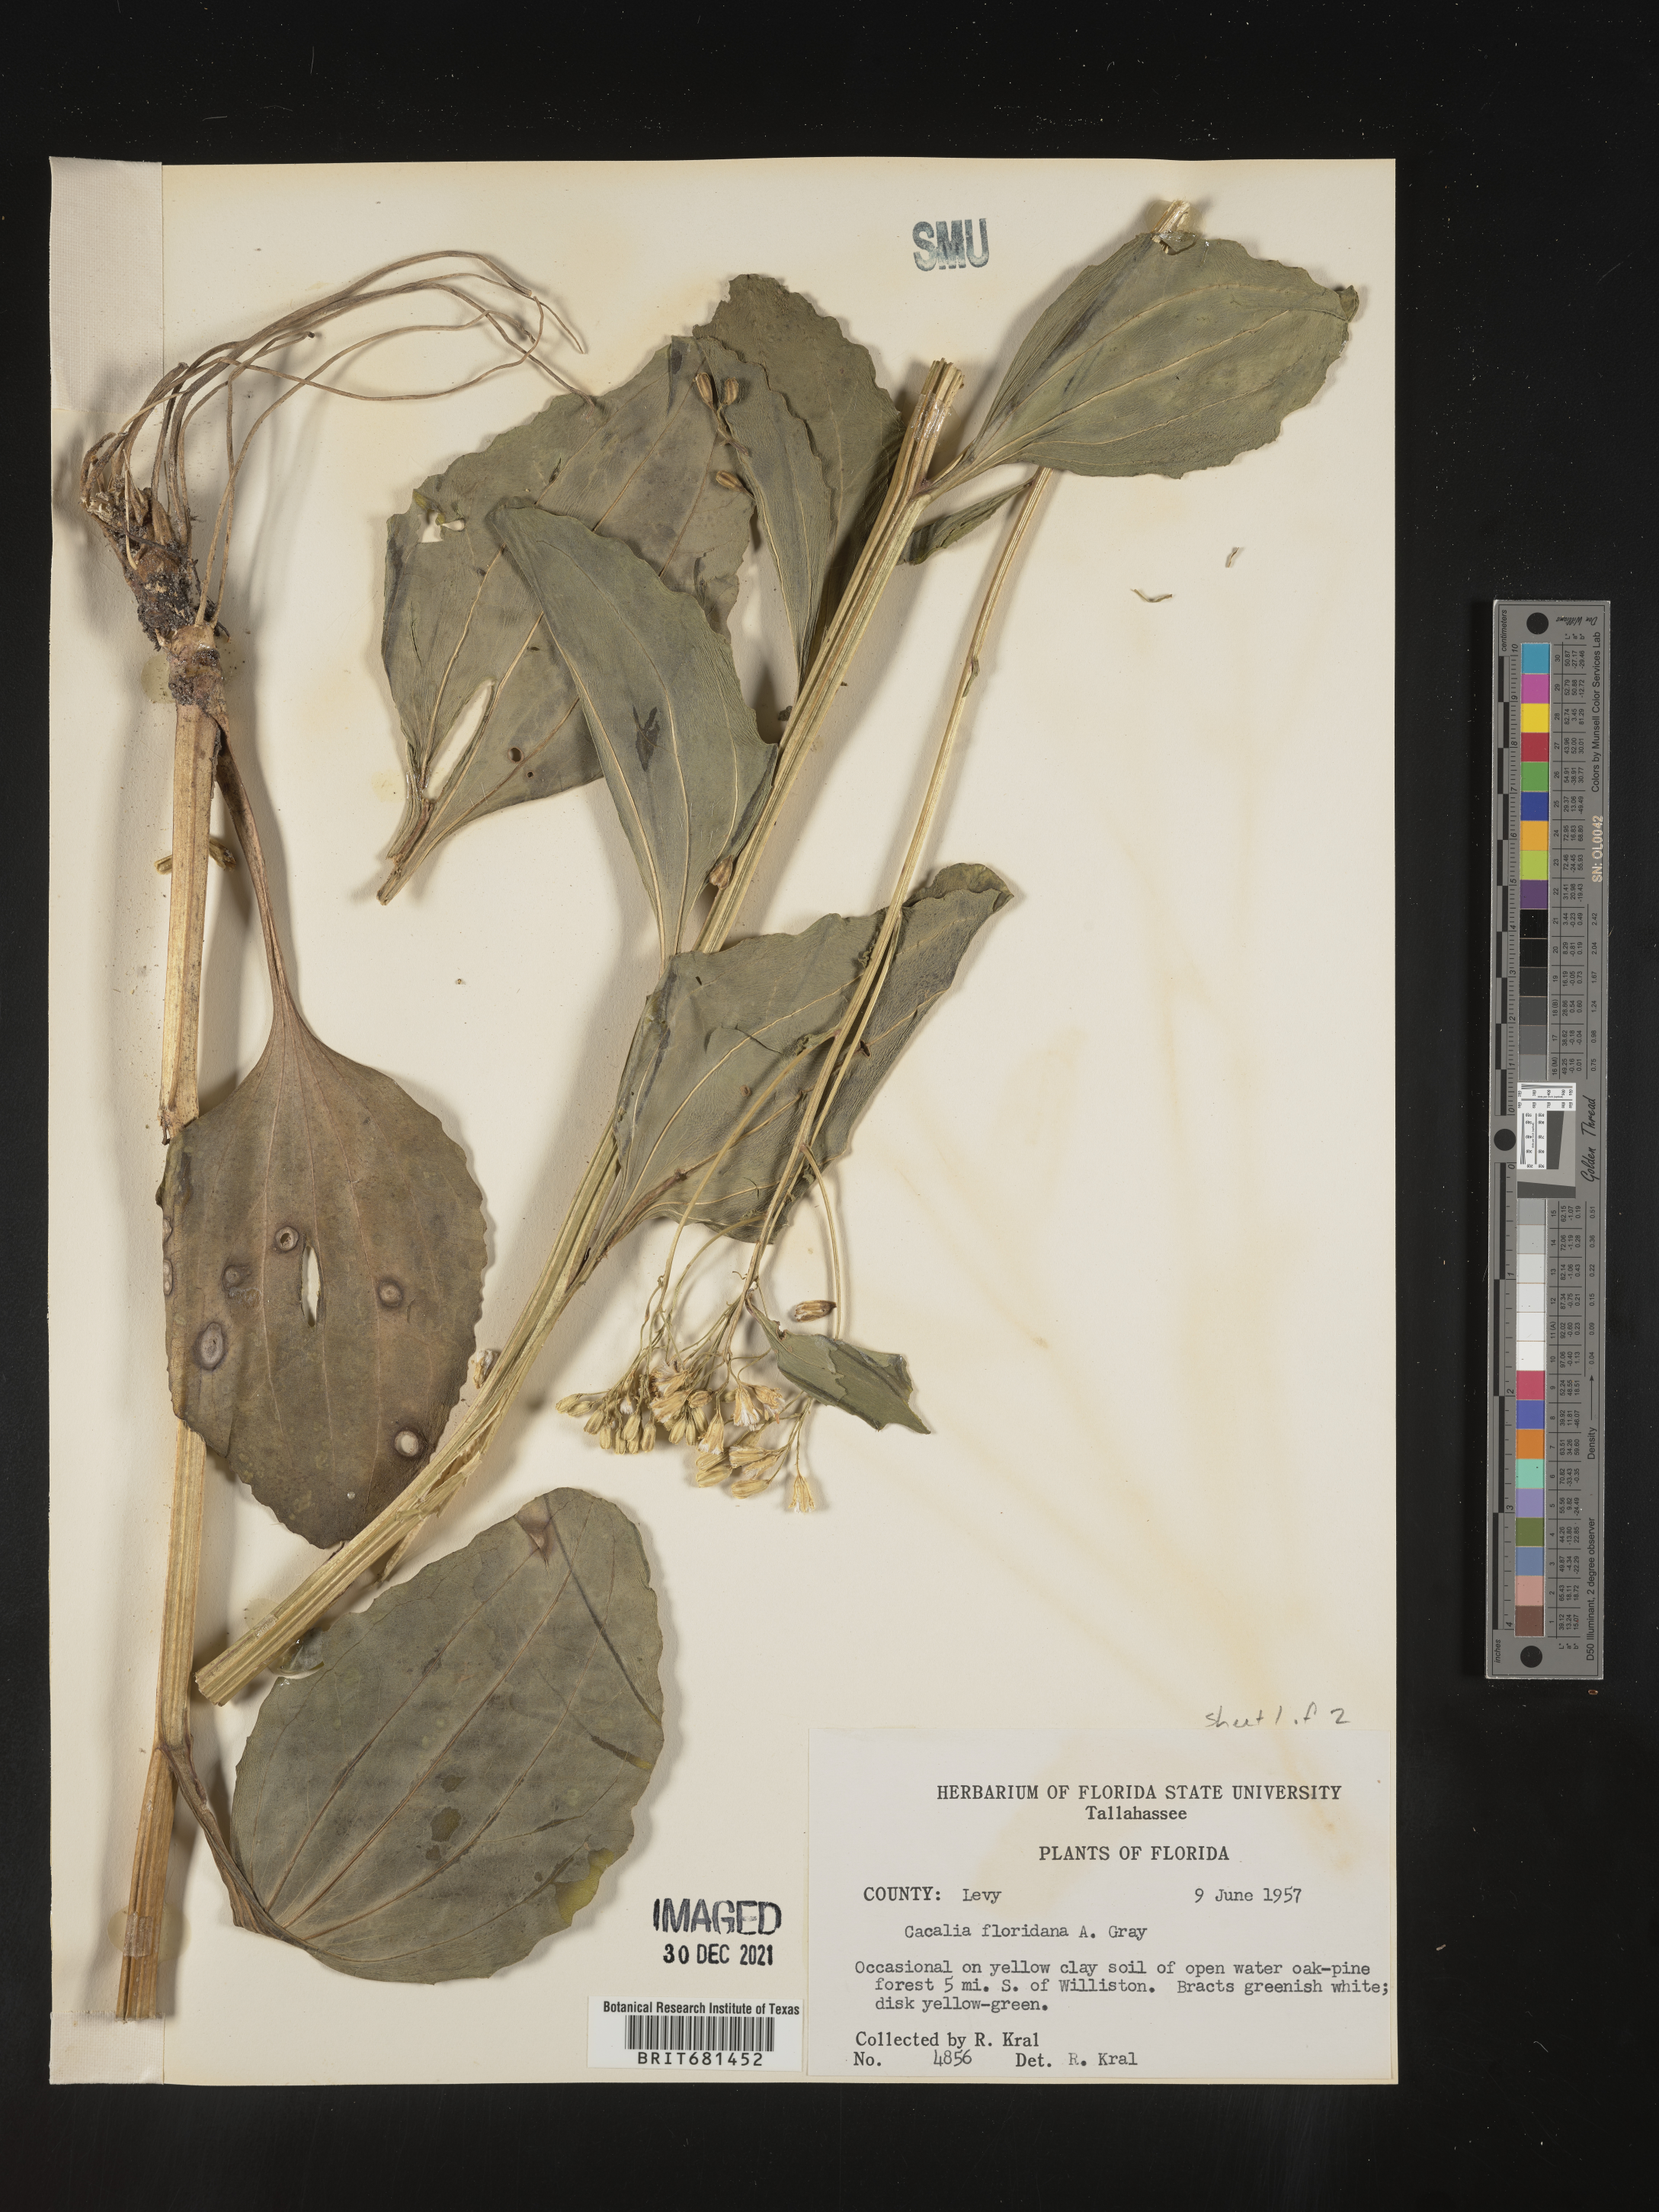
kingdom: Plantae
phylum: Tracheophyta
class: Magnoliopsida
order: Asterales
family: Asteraceae
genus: Arnoglossum
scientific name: Arnoglossum floridanum
